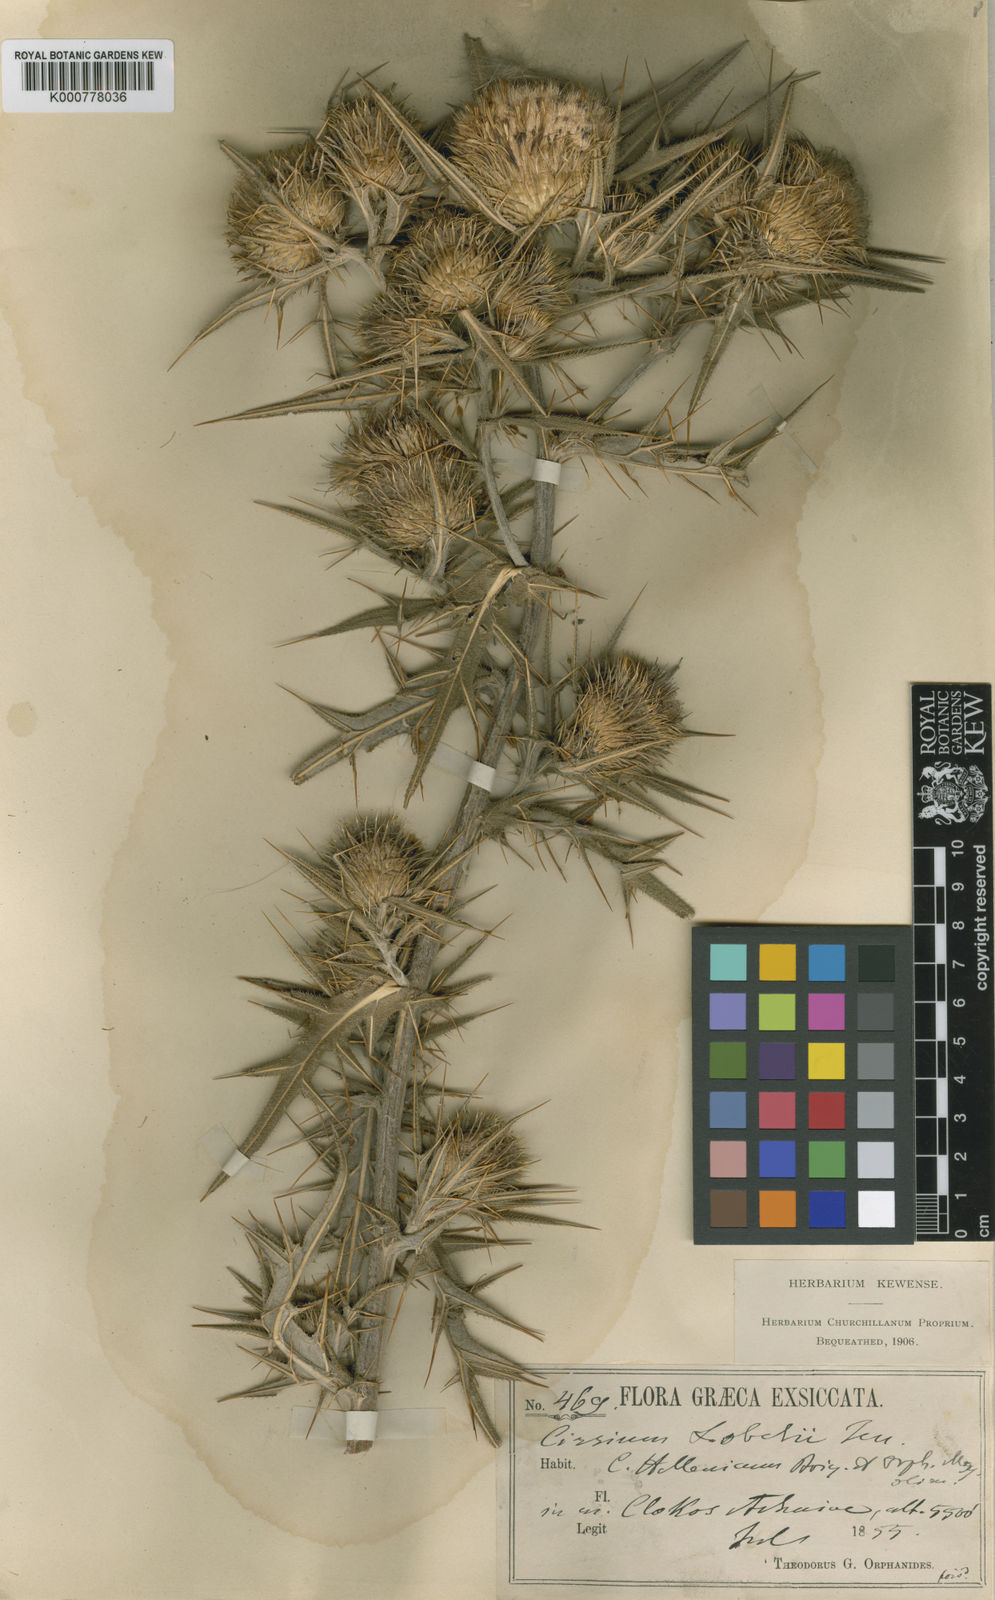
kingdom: Plantae
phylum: Tracheophyta
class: Magnoliopsida
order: Asterales
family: Asteraceae
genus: Lophiolepis
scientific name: Lophiolepis lobelii
